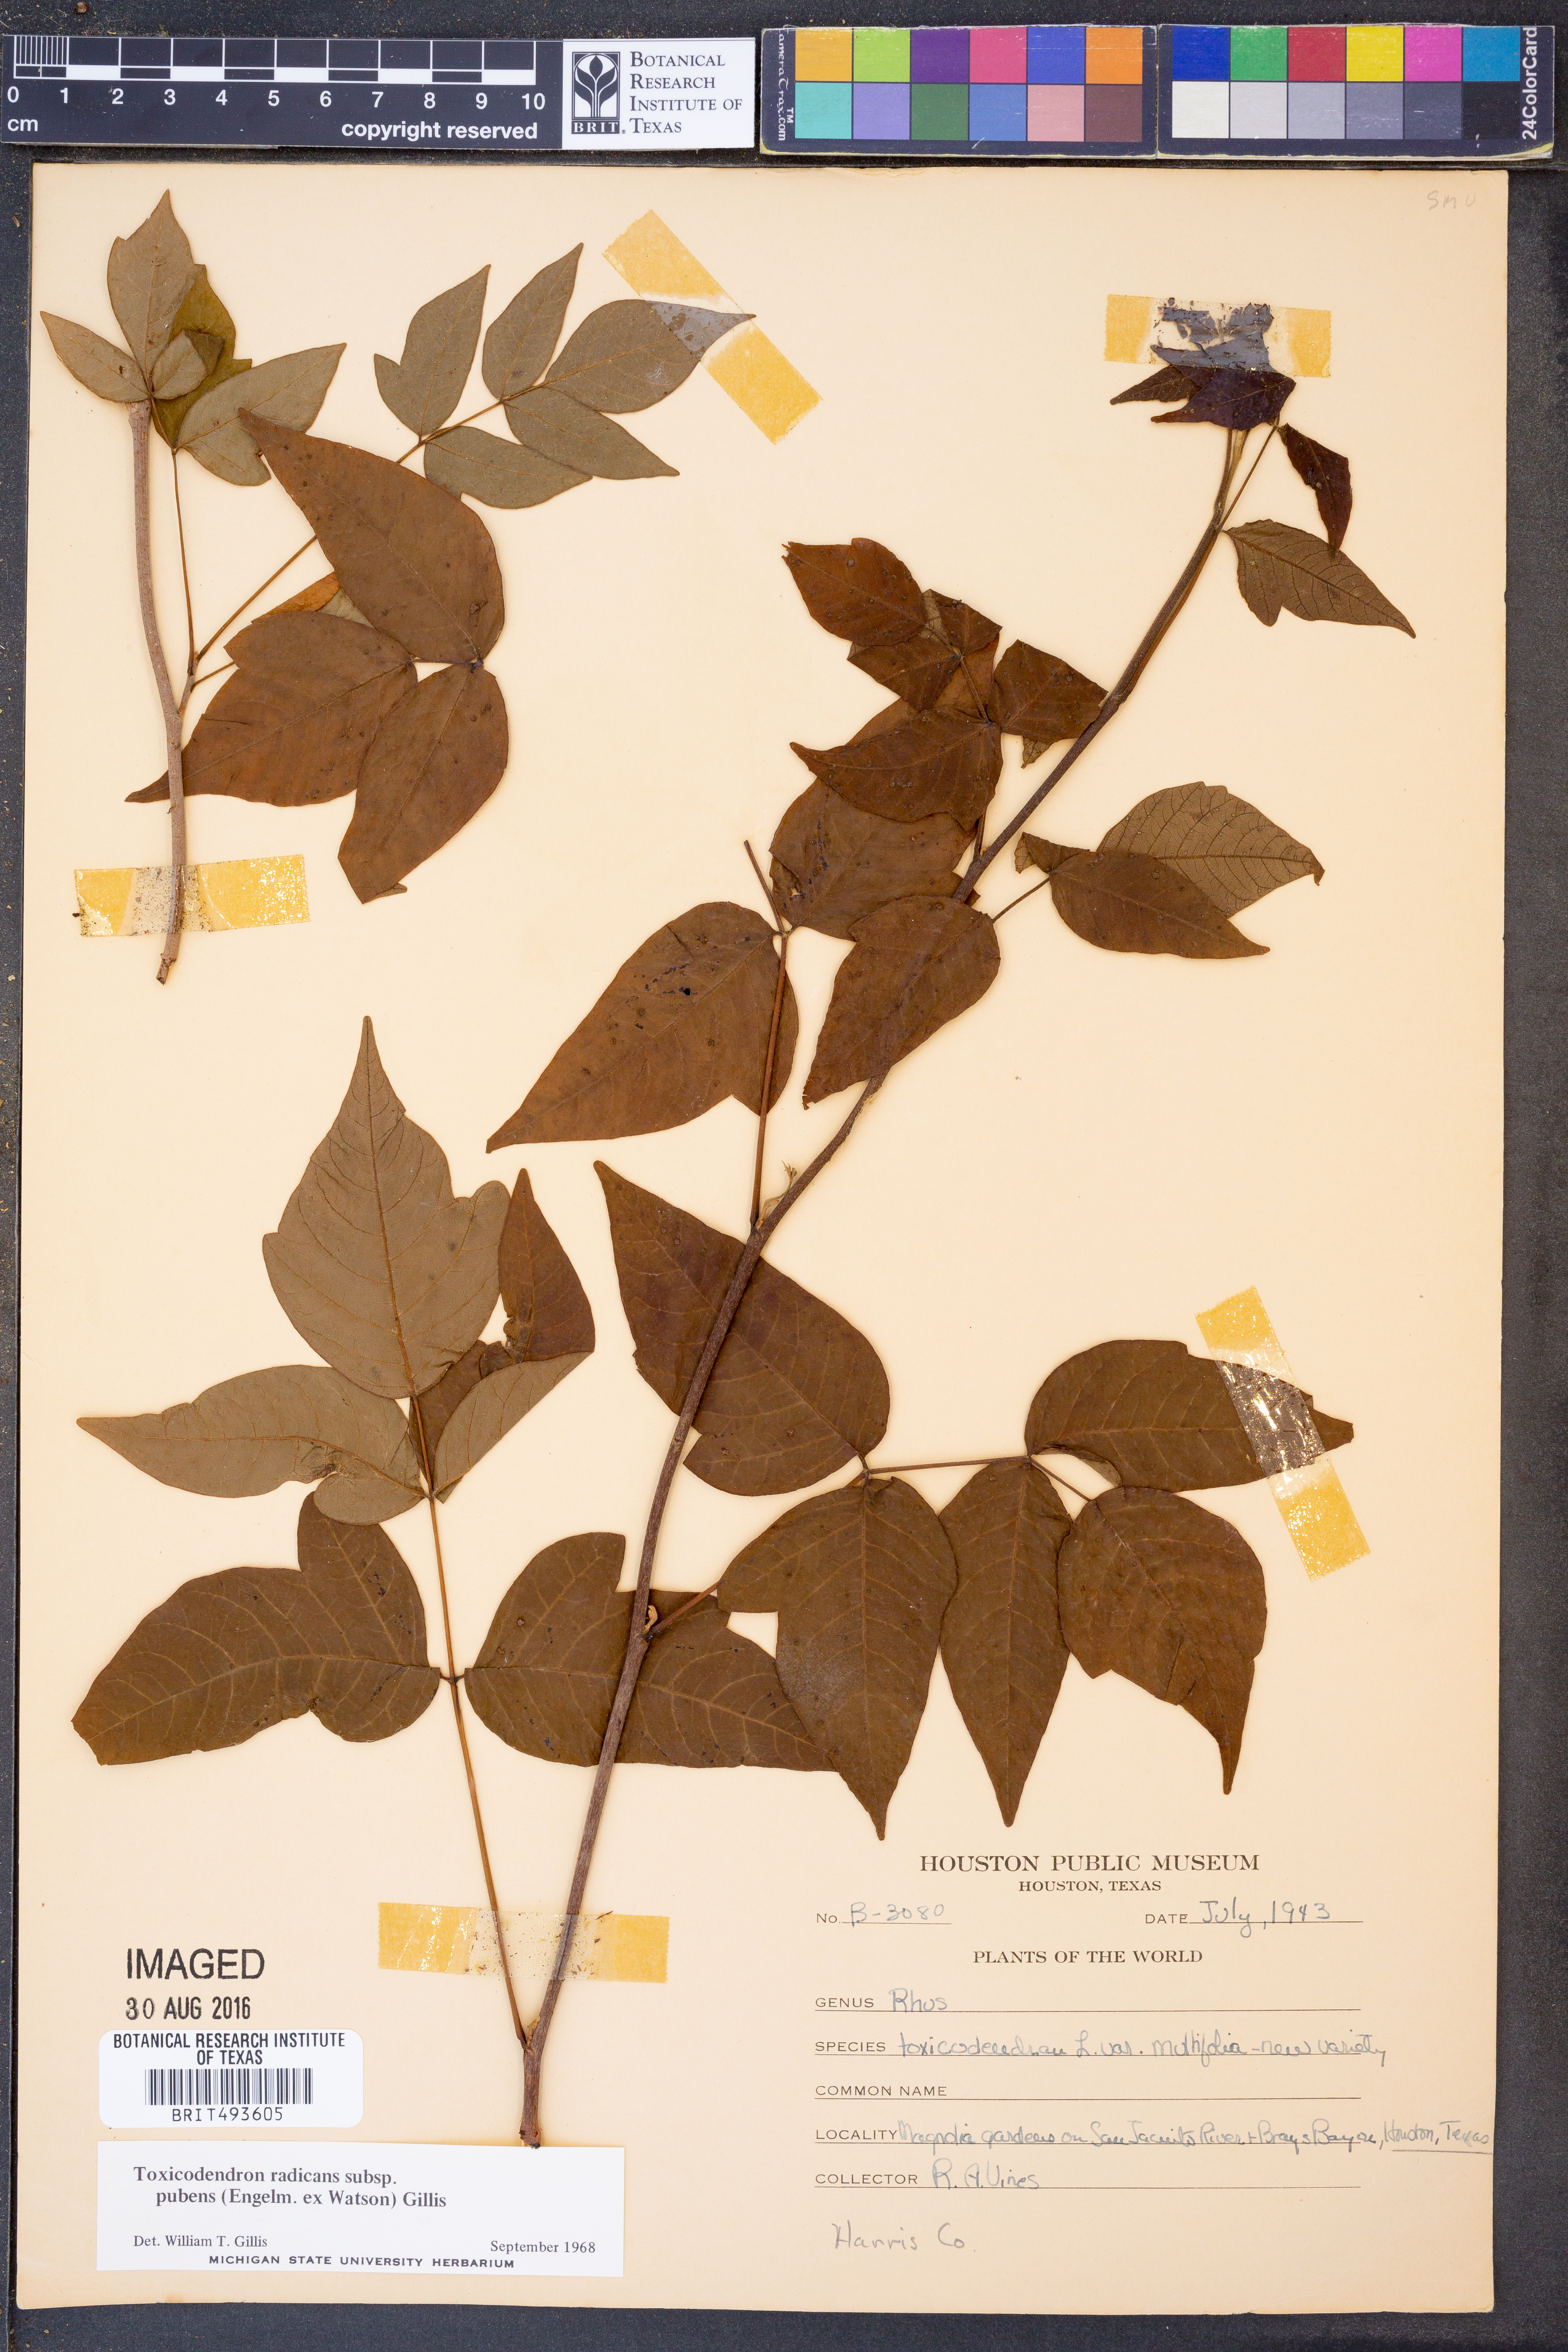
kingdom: Plantae
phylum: Tracheophyta
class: Magnoliopsida
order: Sapindales
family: Anacardiaceae
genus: Toxicodendron
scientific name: Toxicodendron radicans
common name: Poison ivy
